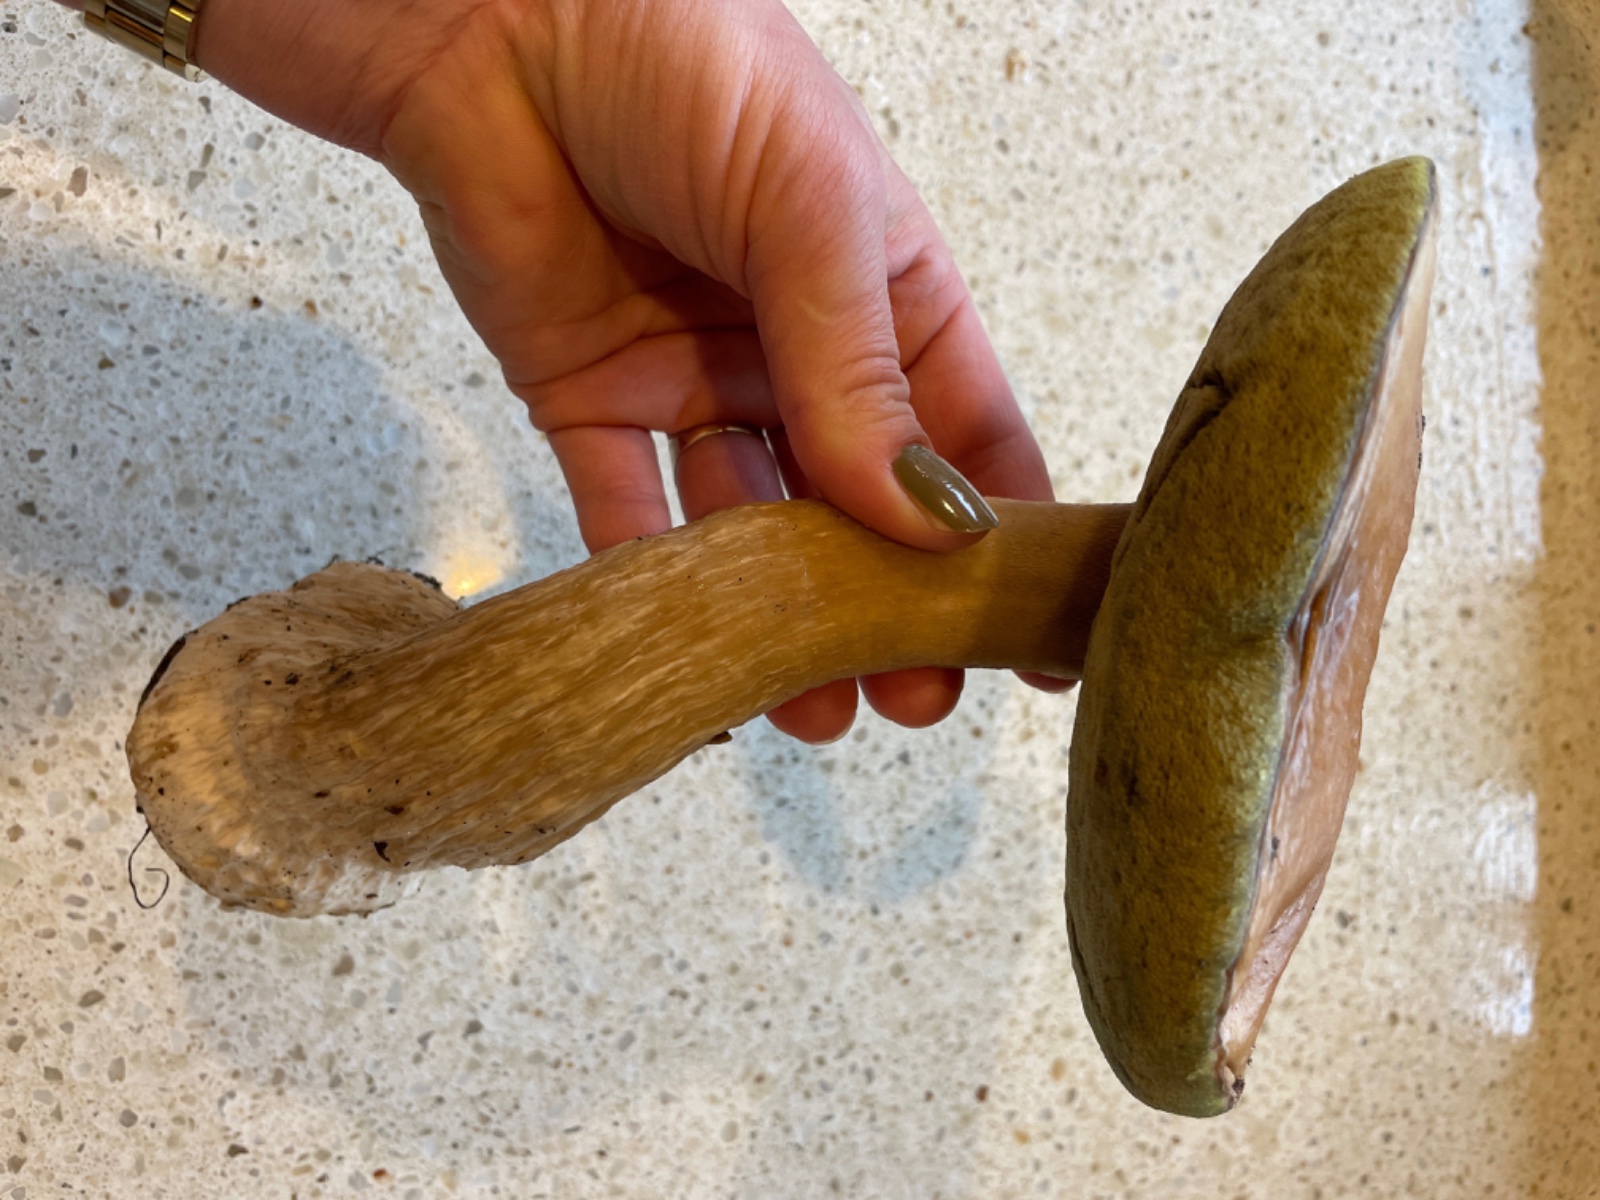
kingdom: Fungi
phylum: Basidiomycota
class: Agaricomycetes
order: Boletales
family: Boletaceae
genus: Boletus
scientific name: Boletus edulis
